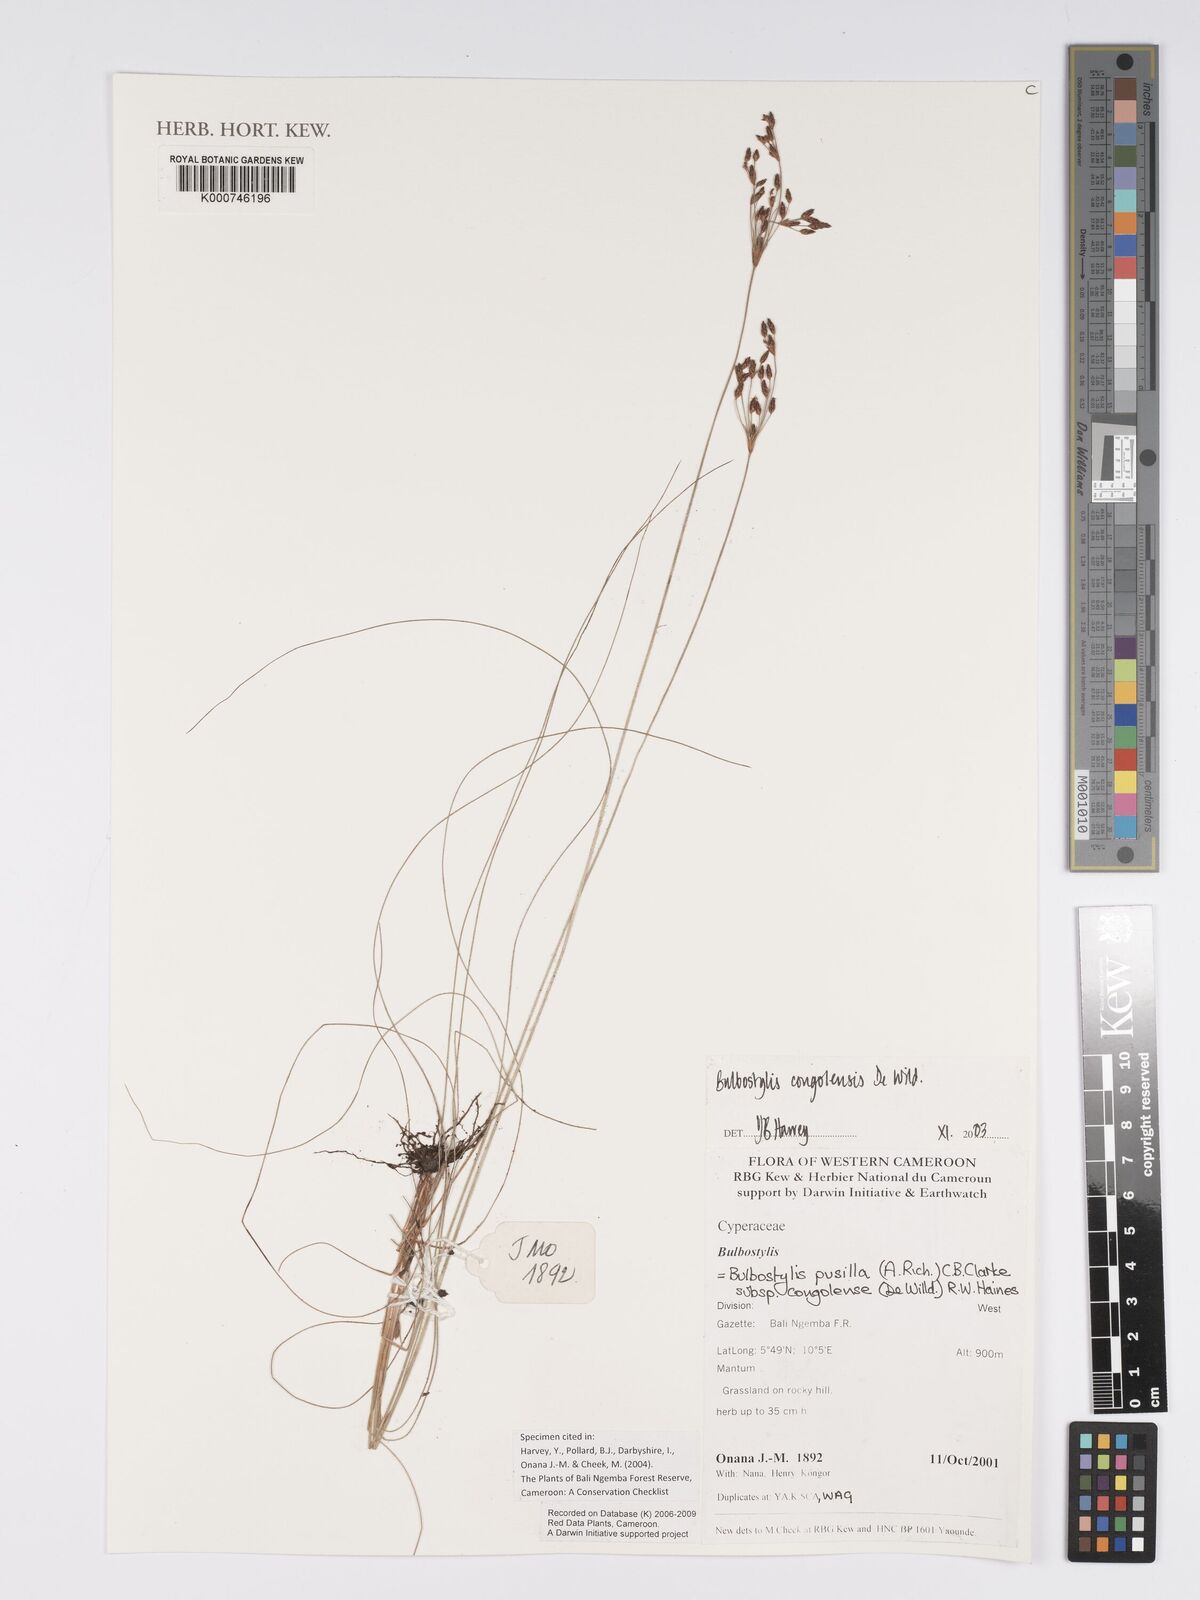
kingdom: Plantae
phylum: Tracheophyta
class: Liliopsida
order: Poales
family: Cyperaceae
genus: Bulbostylis
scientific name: Bulbostylis congolensis
